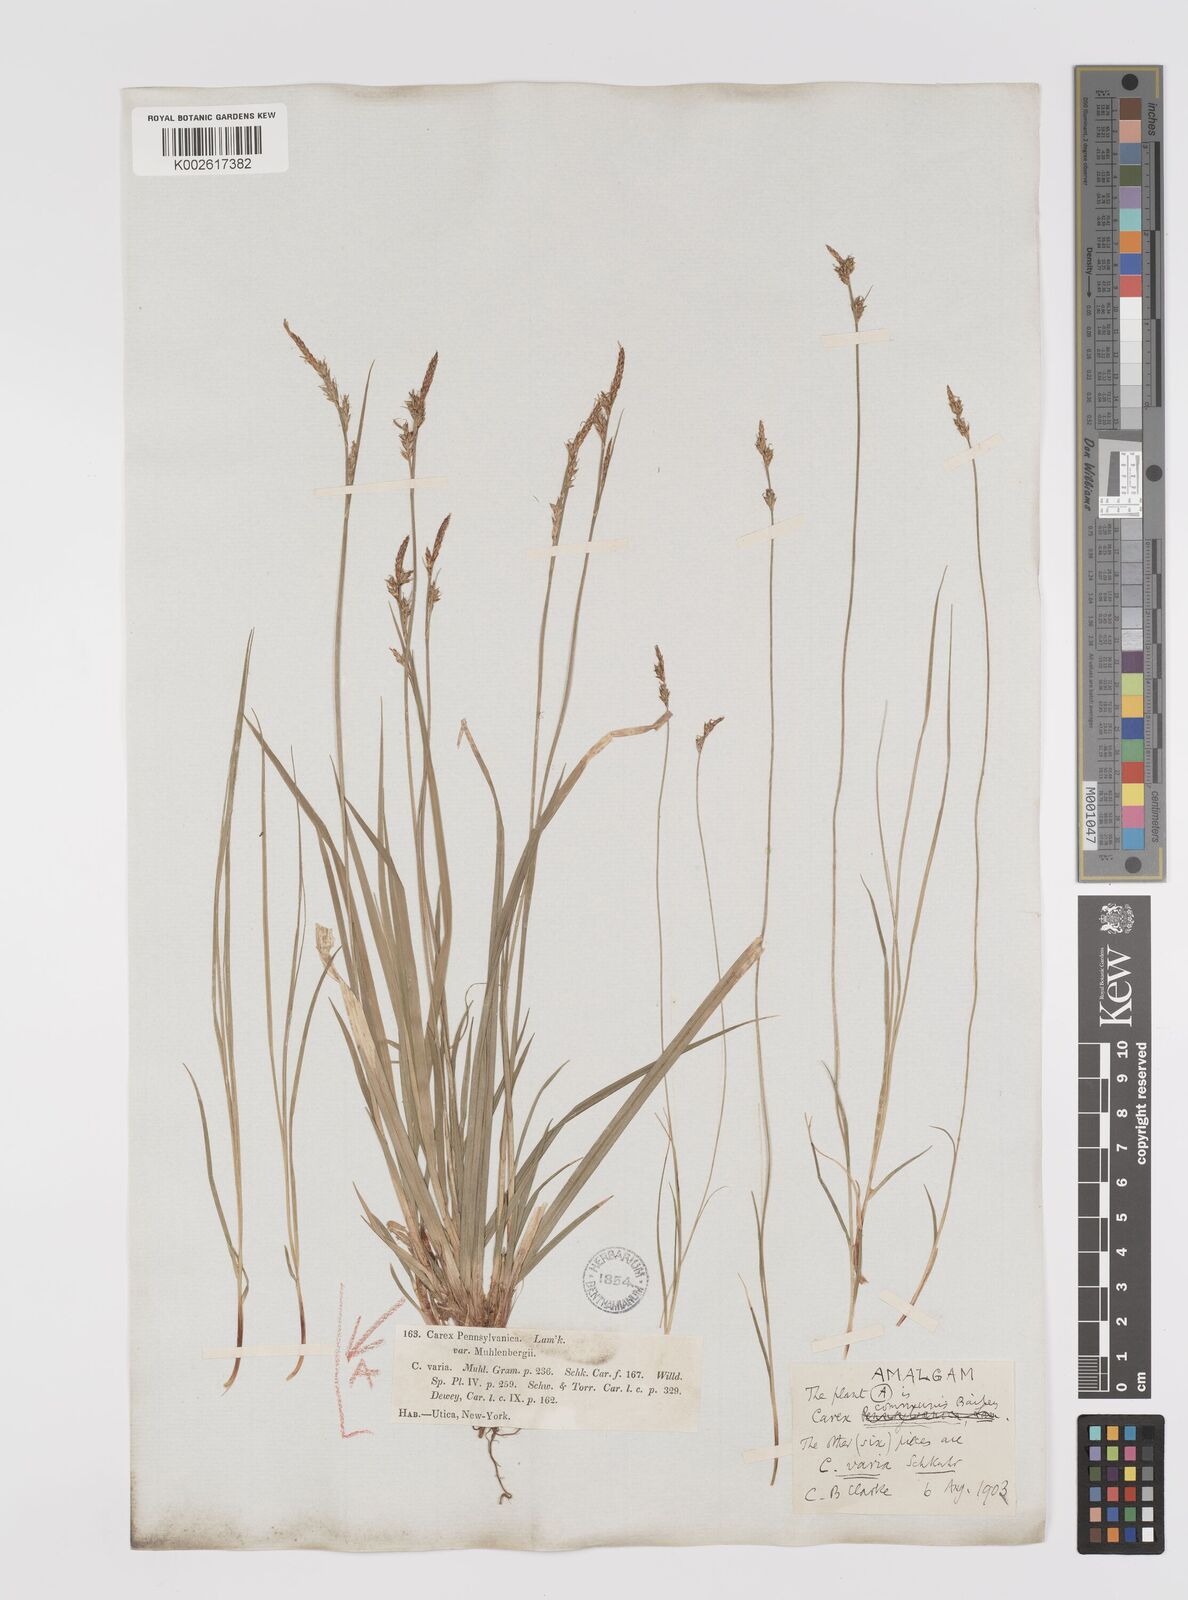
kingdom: Plantae
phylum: Tracheophyta
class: Liliopsida
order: Poales
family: Cyperaceae
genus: Carex
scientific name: Carex communis
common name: Colonial oak sedge
